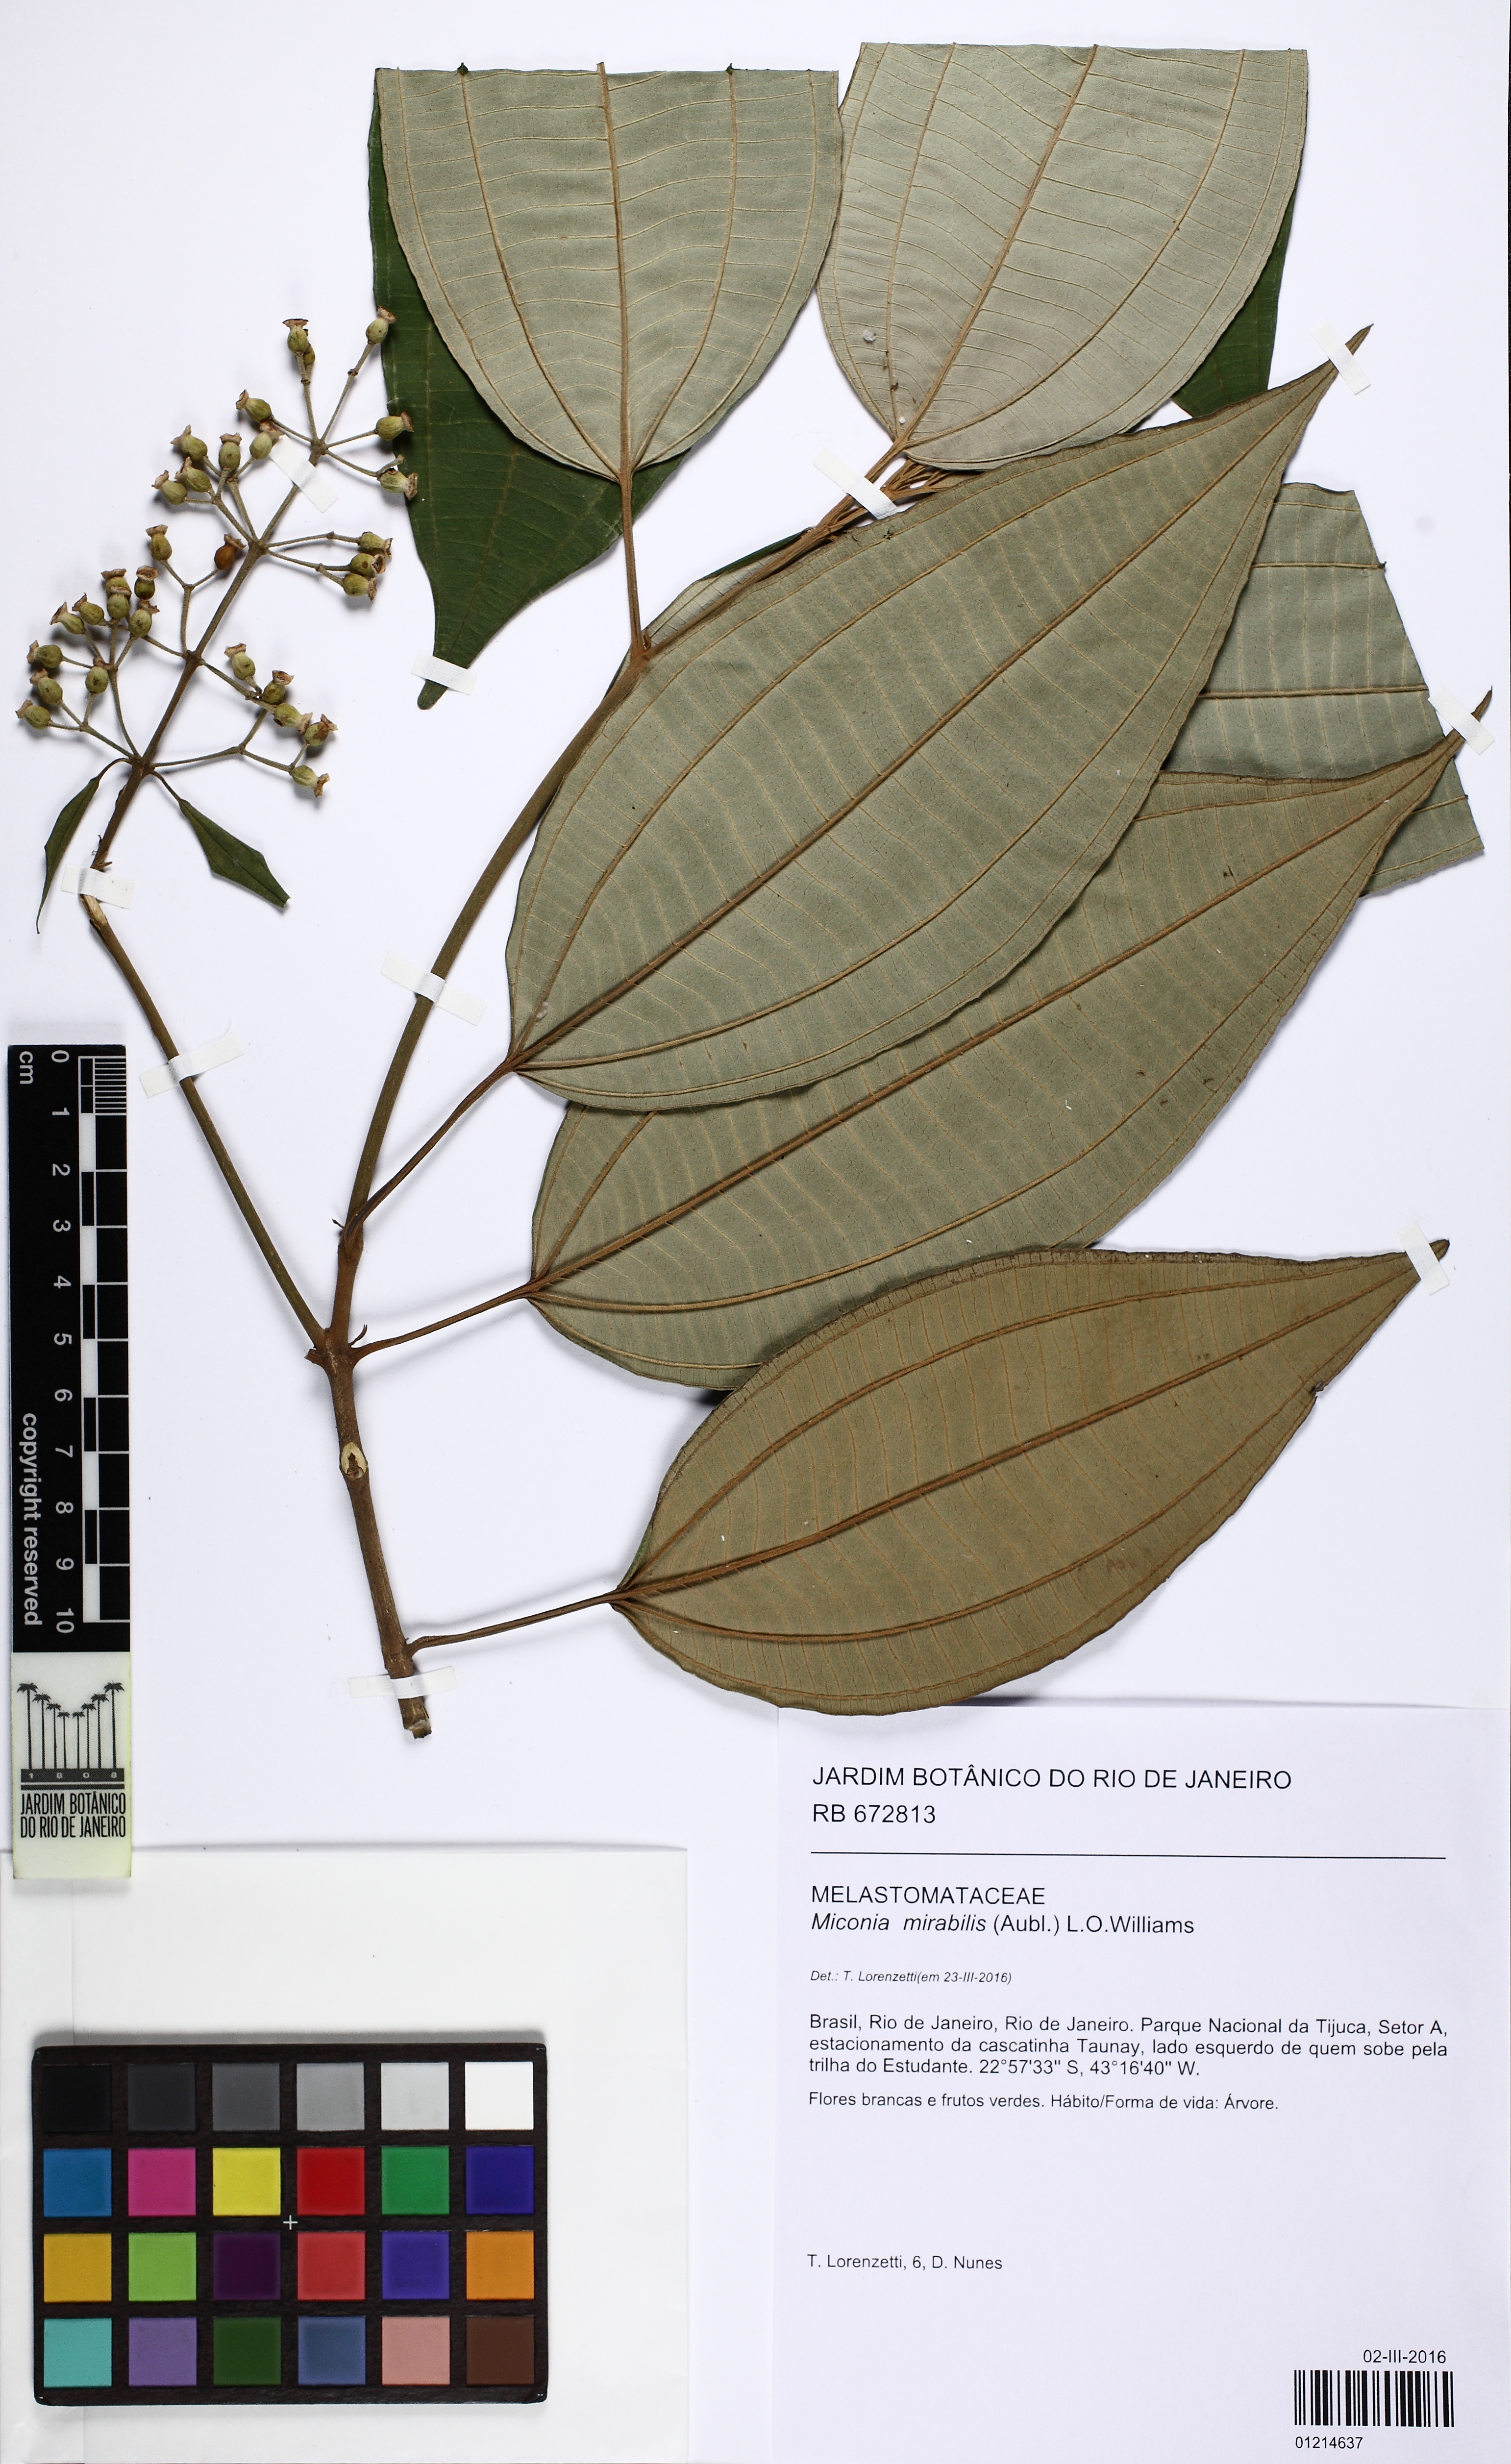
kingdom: Plantae
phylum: Tracheophyta
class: Magnoliopsida
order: Myrtales
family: Melastomataceae
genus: Miconia
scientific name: Miconia mirabilis
